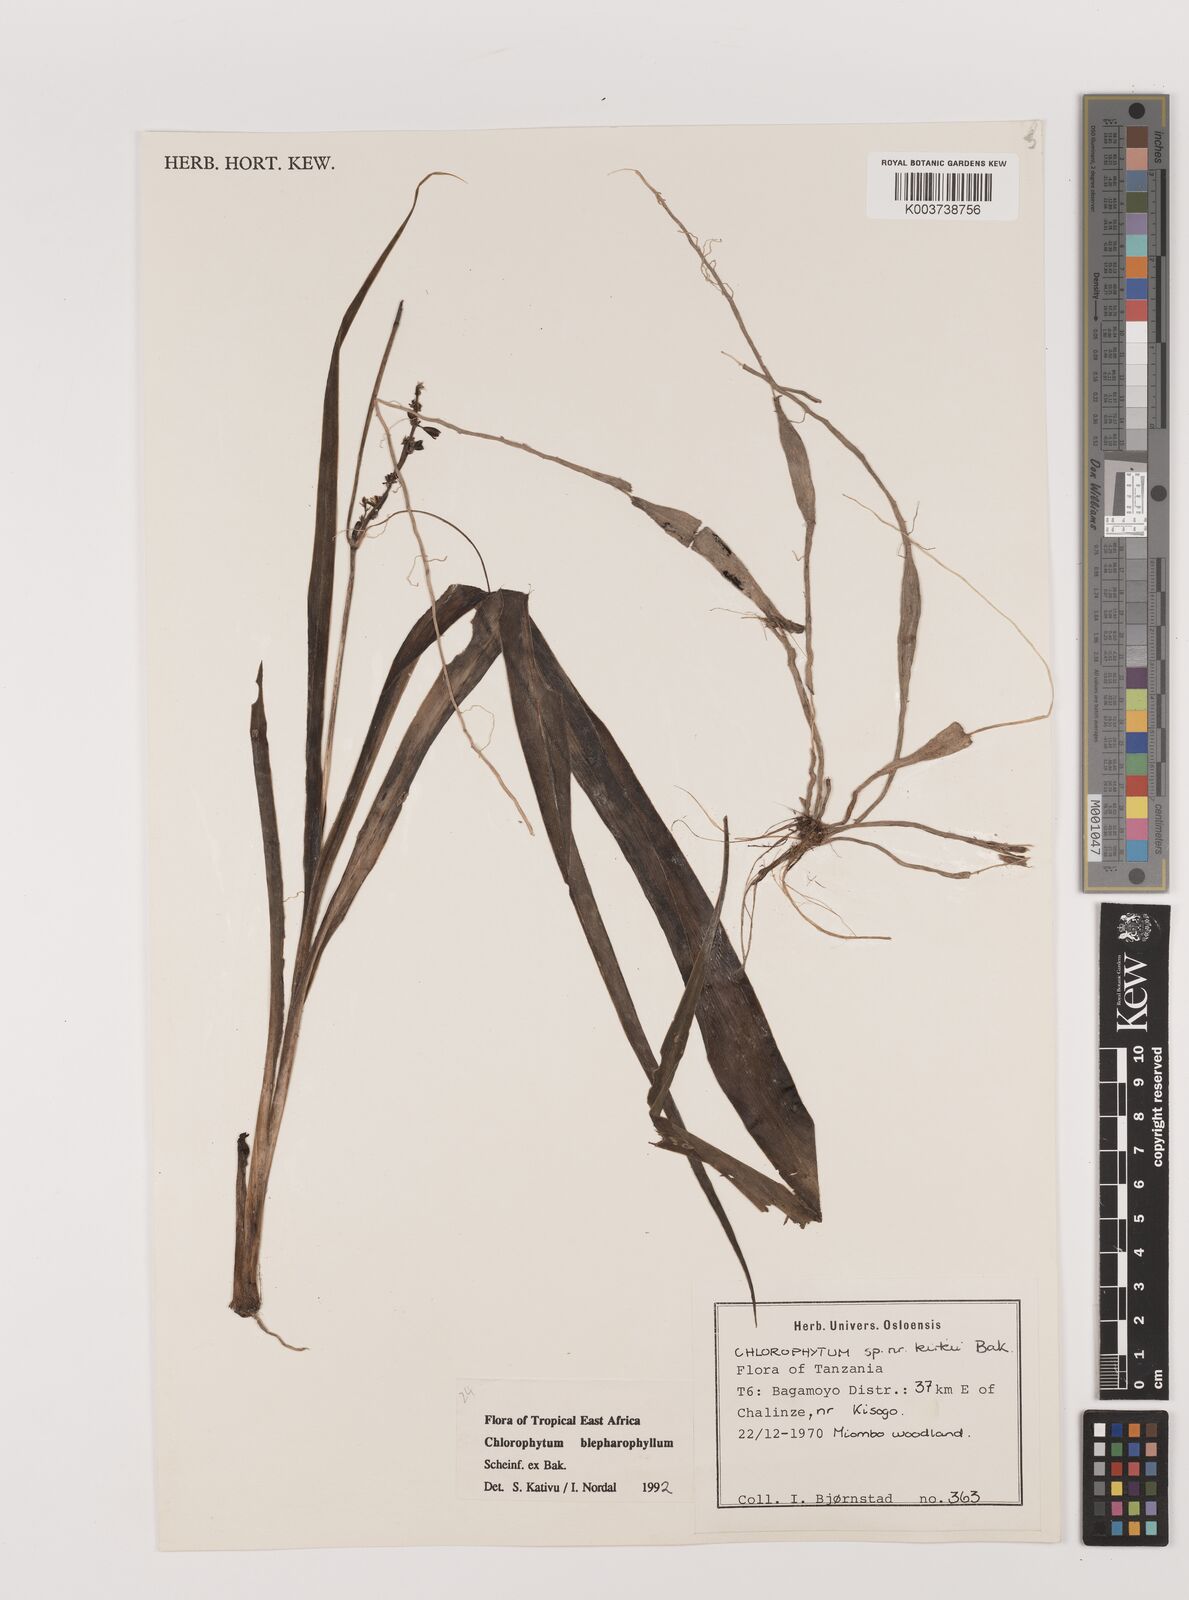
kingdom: Plantae
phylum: Tracheophyta
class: Liliopsida
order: Asparagales
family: Asparagaceae
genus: Chlorophytum
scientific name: Chlorophytum blepharophyllum
